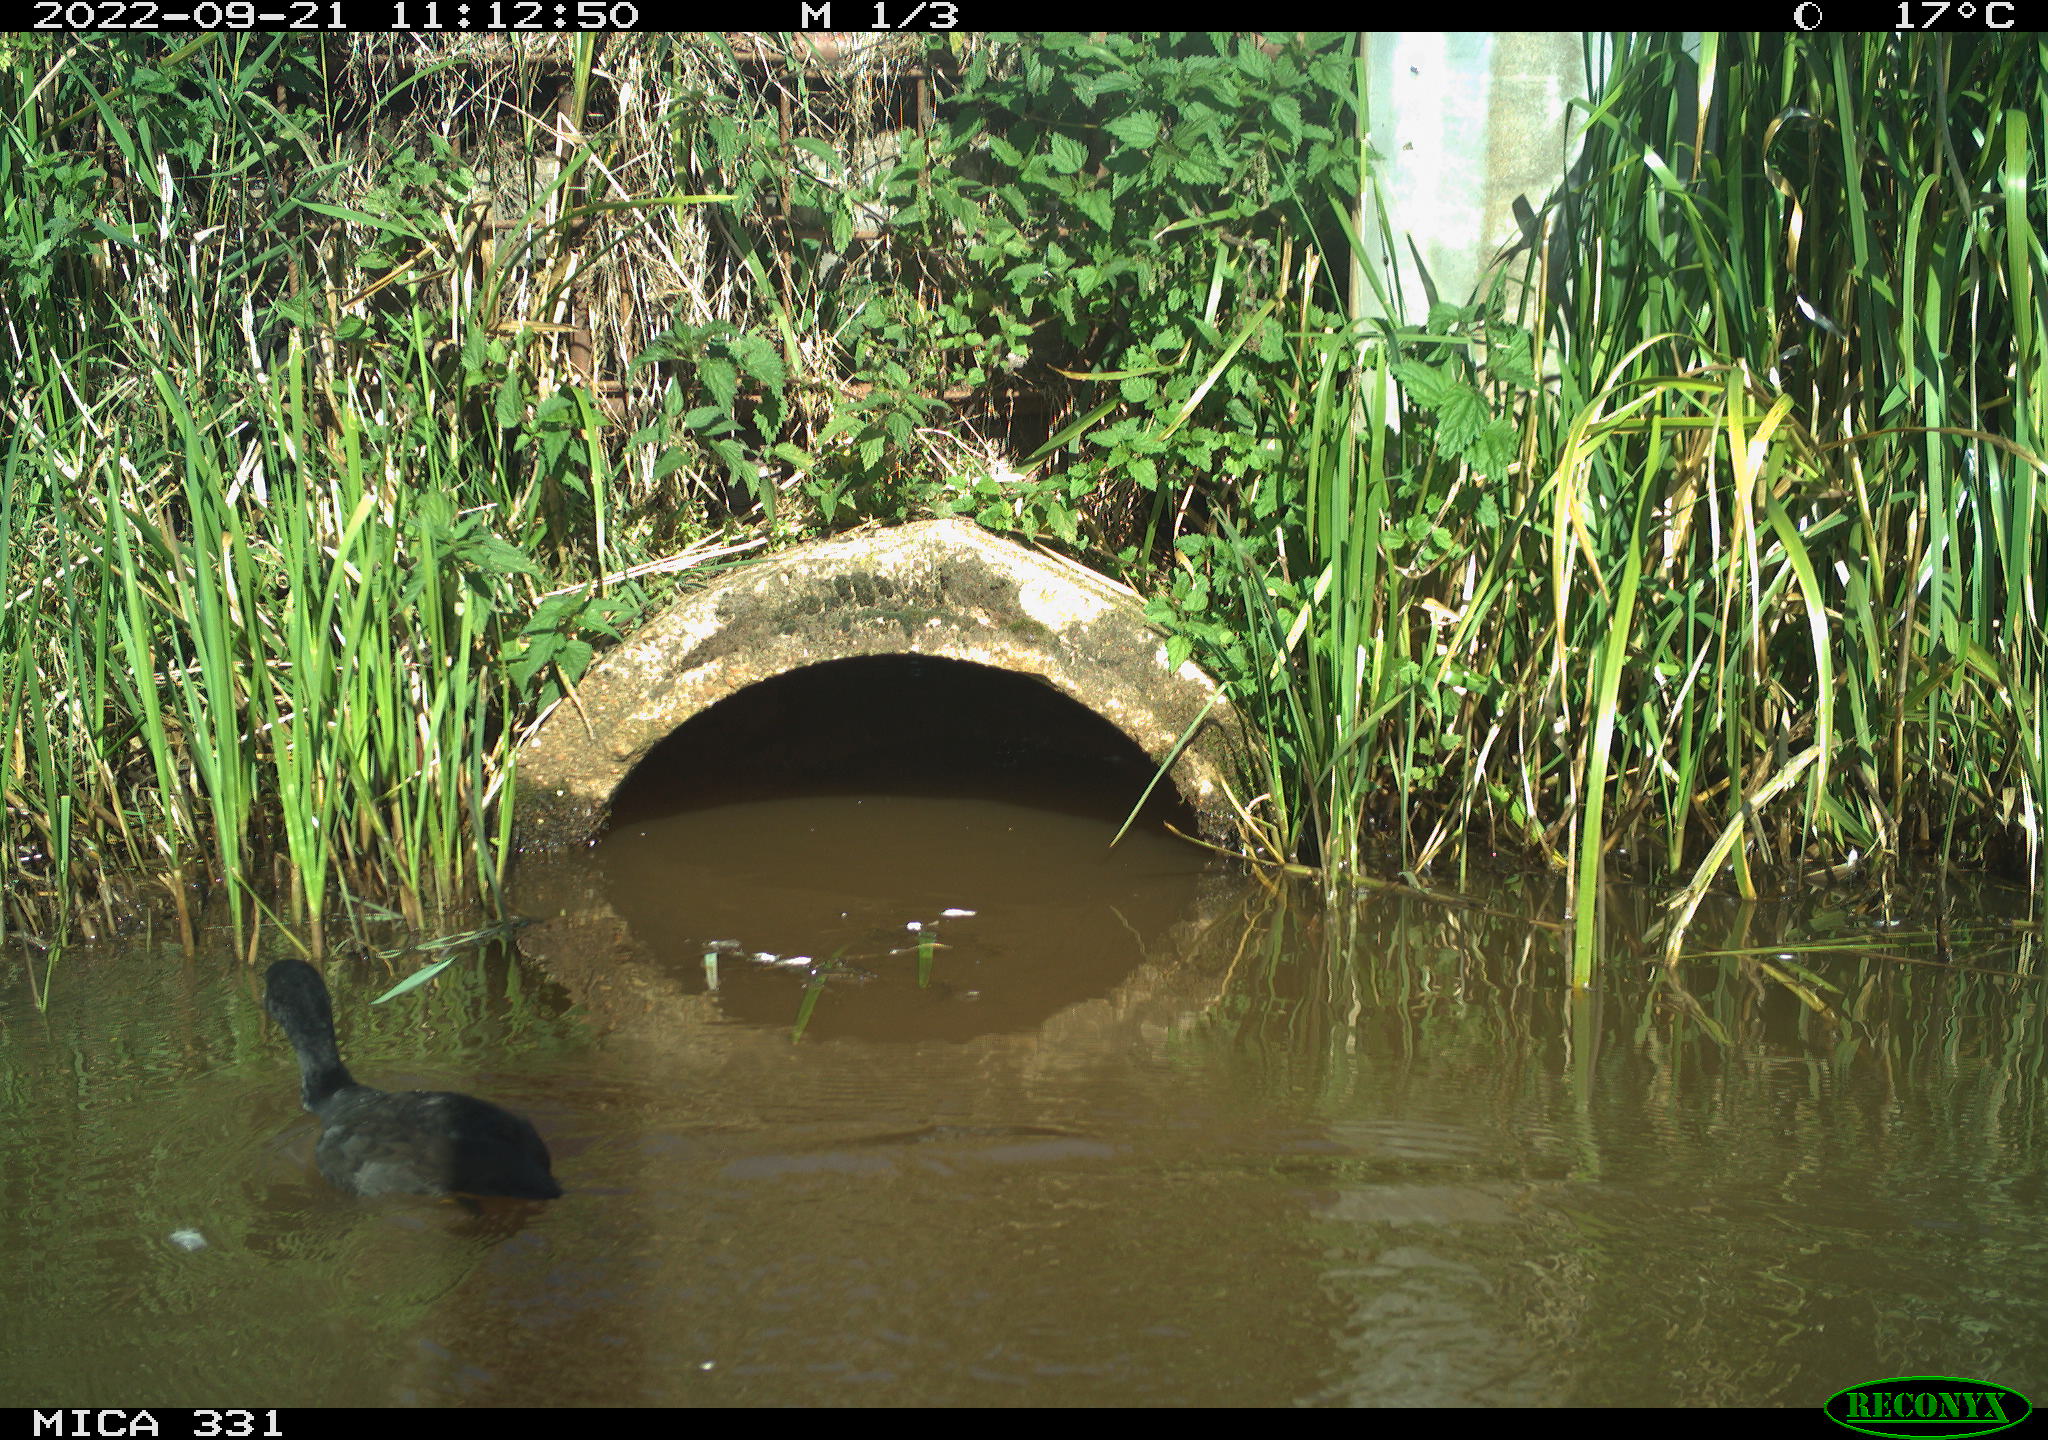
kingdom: Animalia
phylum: Chordata
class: Aves
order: Gruiformes
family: Rallidae
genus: Fulica
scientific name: Fulica atra
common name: Eurasian coot
